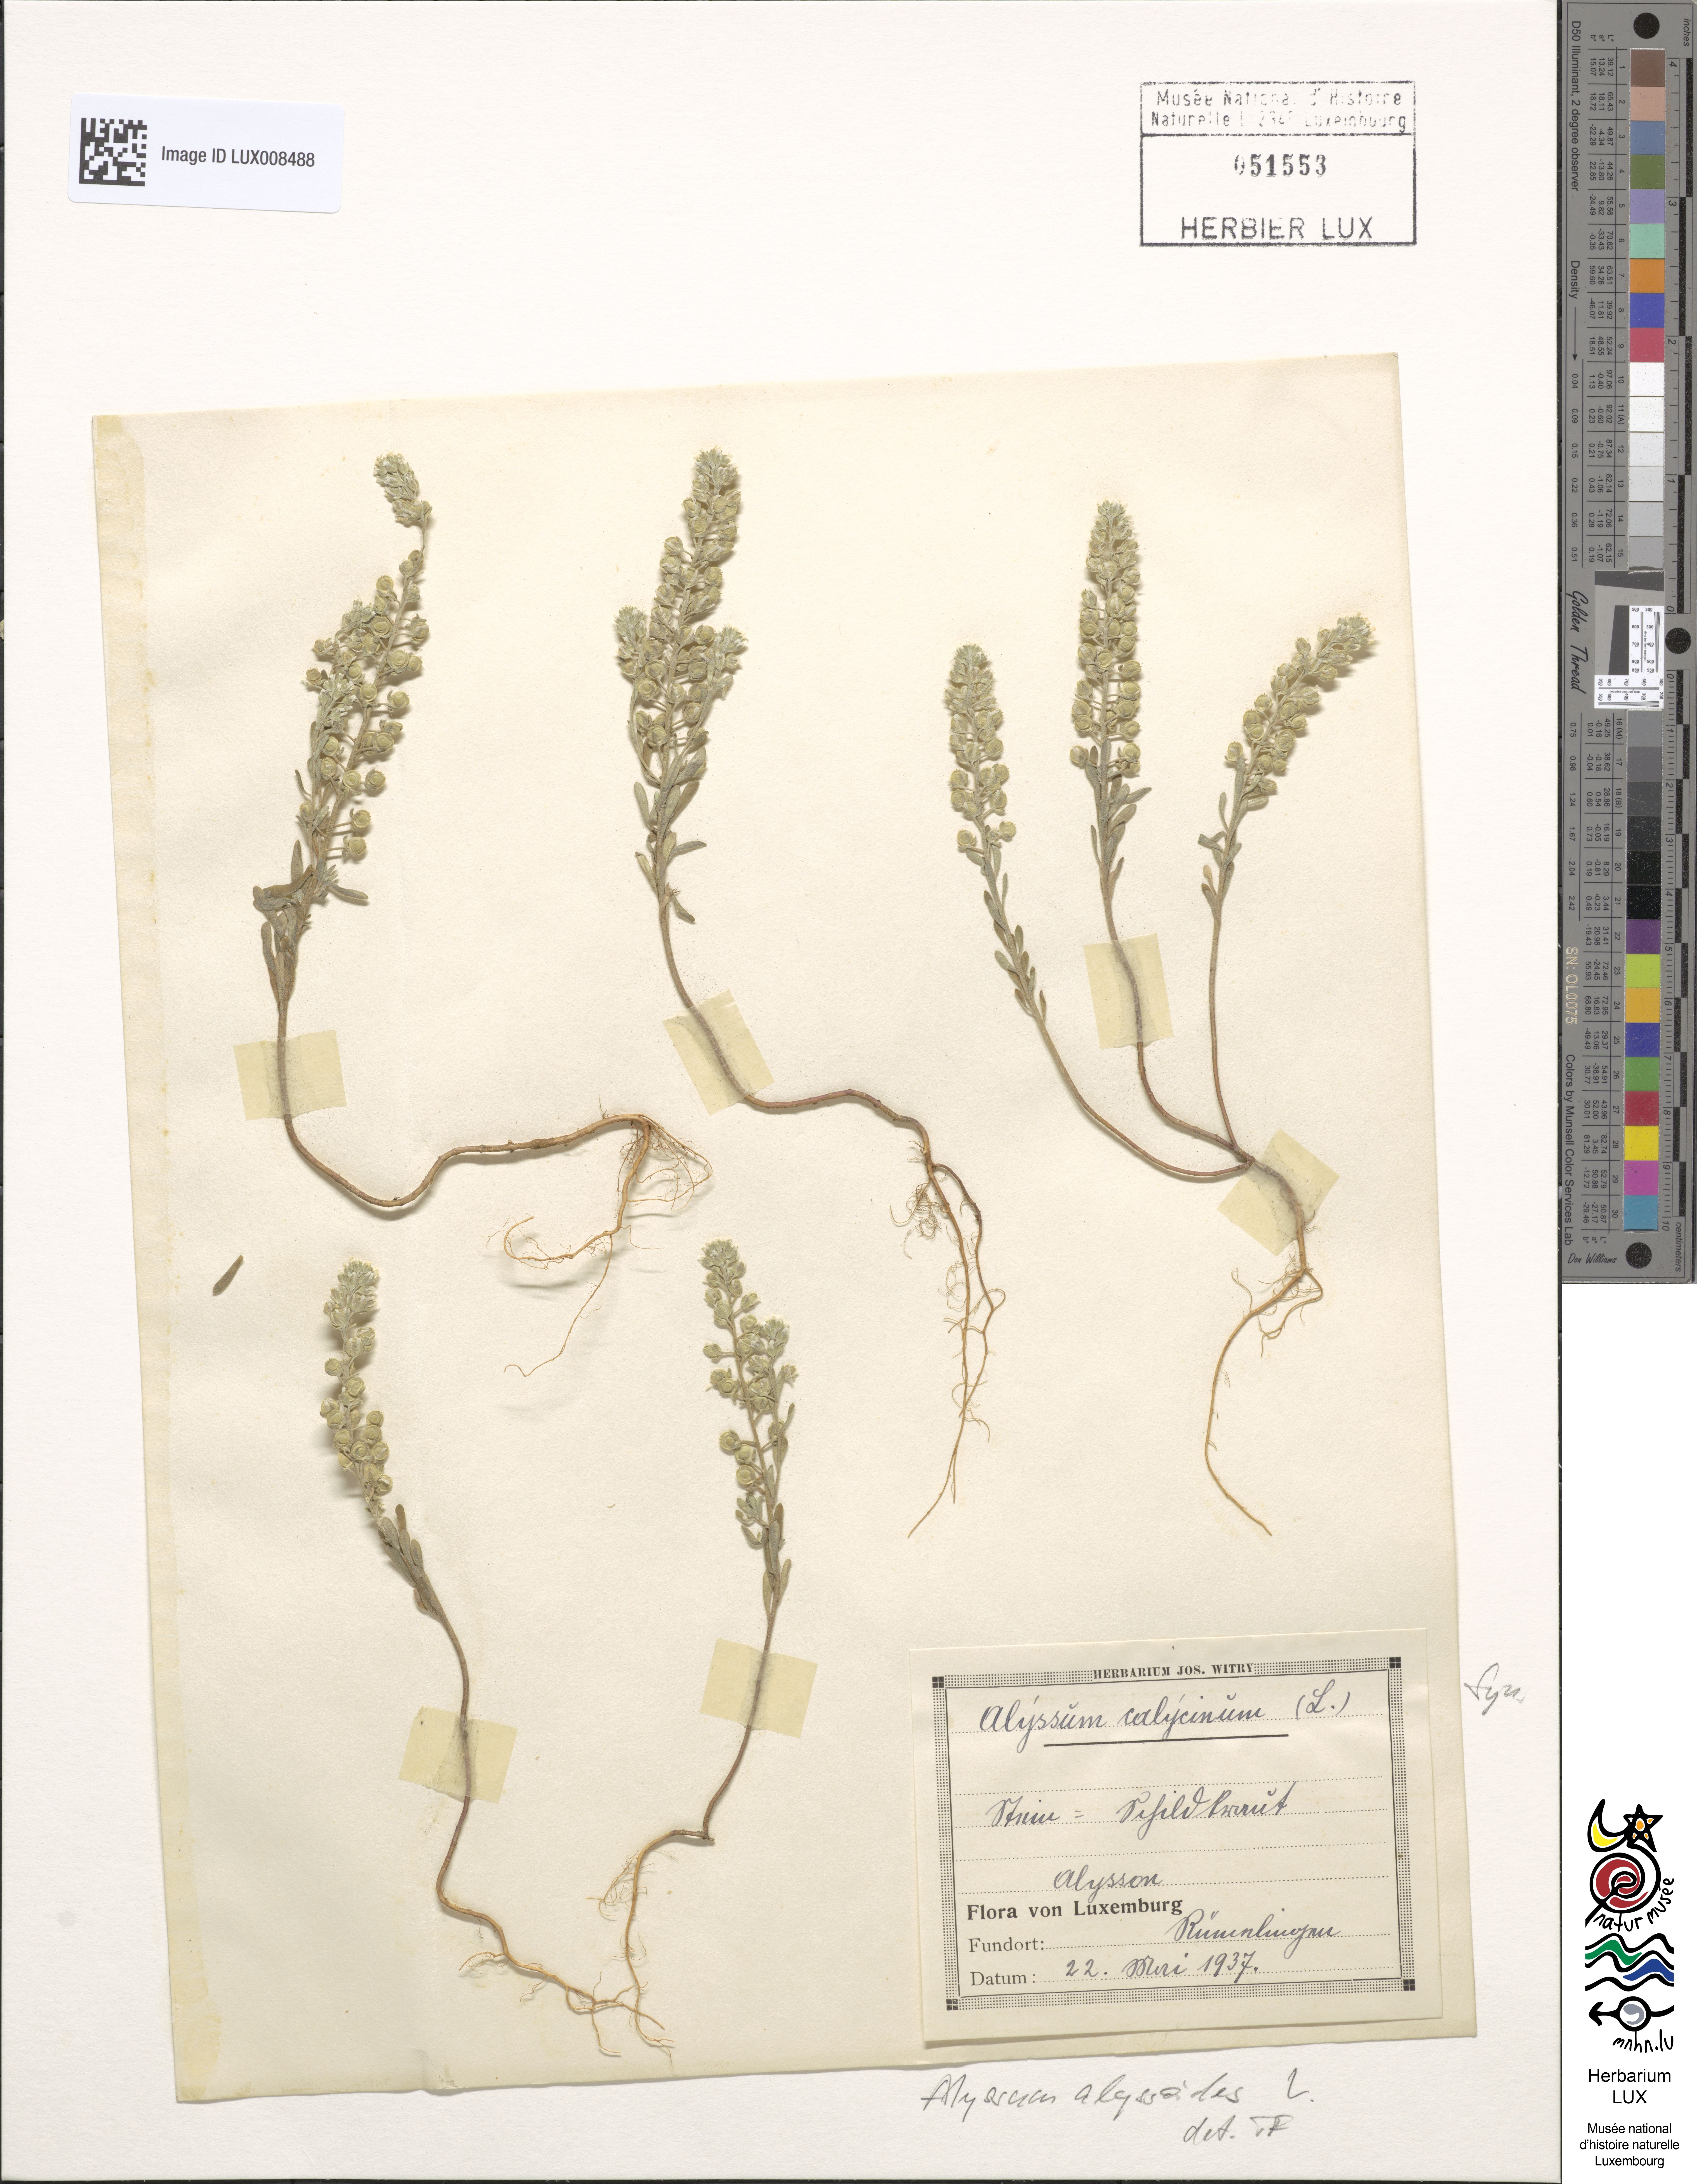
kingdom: Plantae
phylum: Tracheophyta
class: Magnoliopsida
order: Brassicales
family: Brassicaceae
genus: Alyssum
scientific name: Alyssum alyssoides
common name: Small alison
